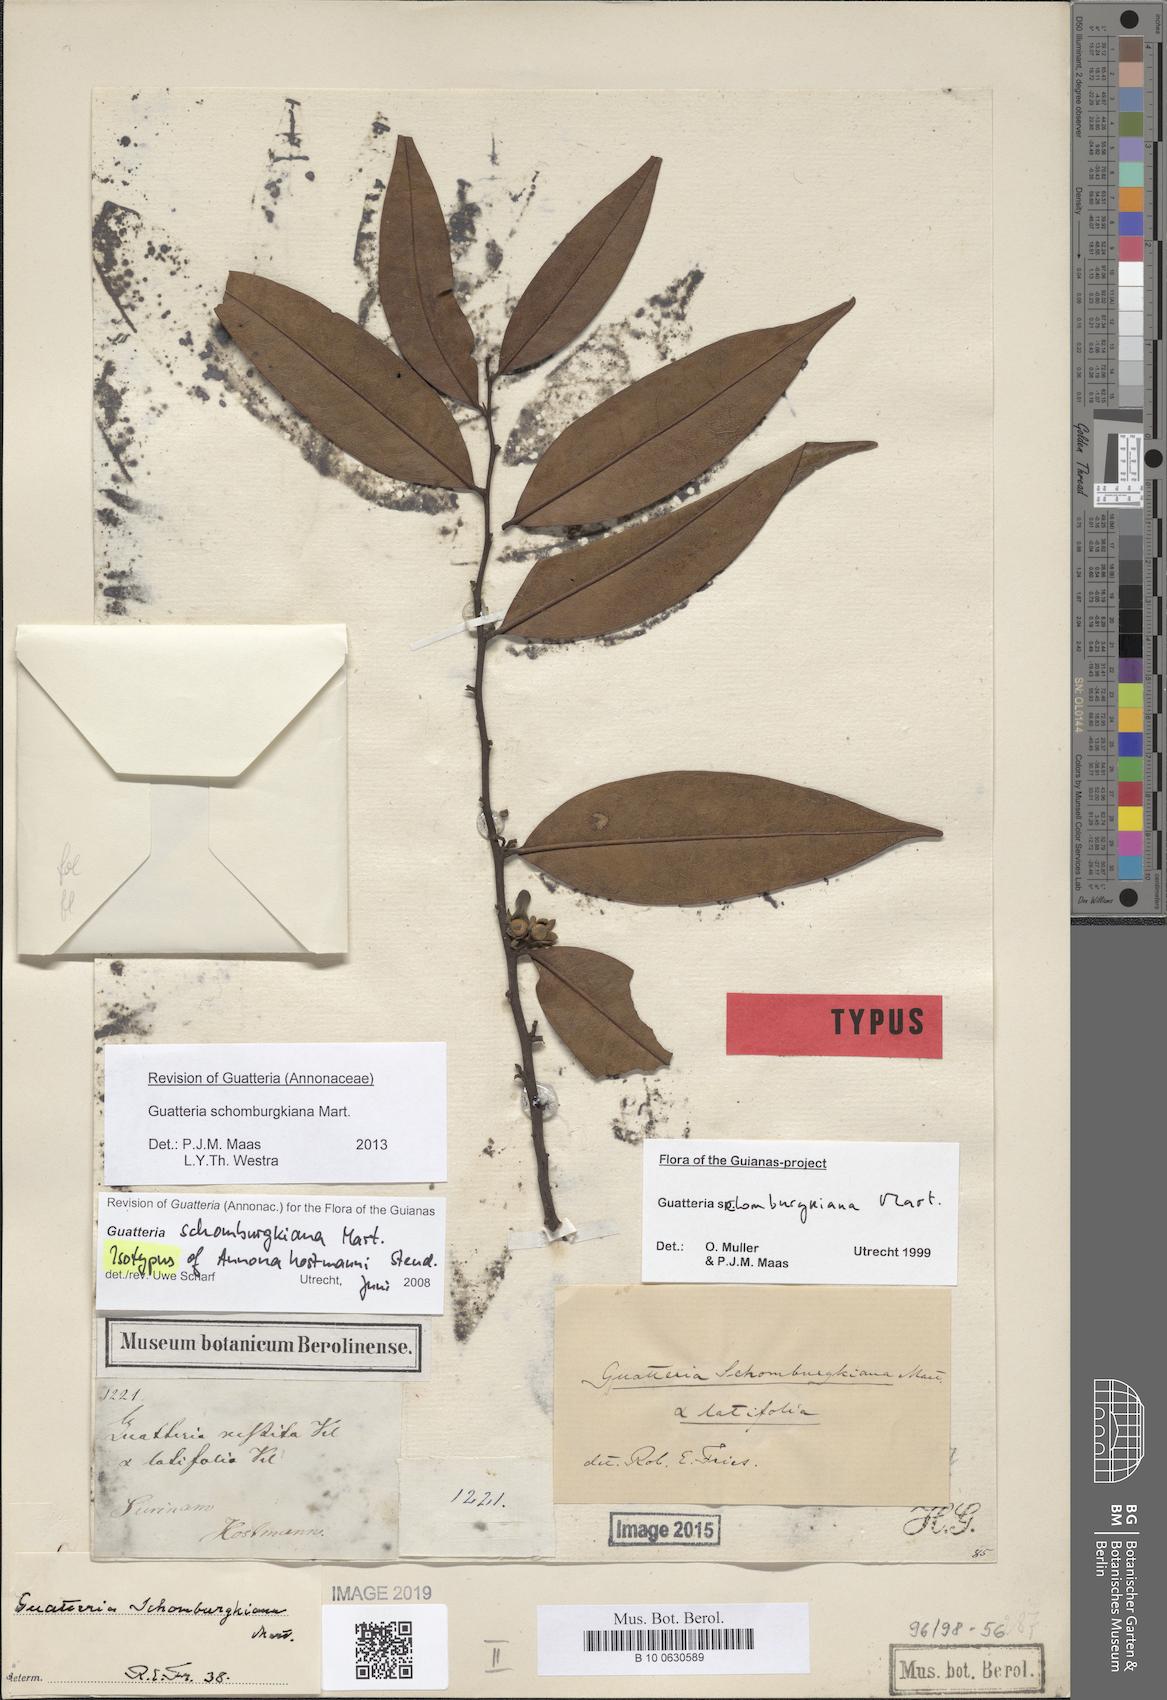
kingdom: Plantae
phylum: Tracheophyta
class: Magnoliopsida
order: Magnoliales
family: Annonaceae
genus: Guatteria
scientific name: Guatteria schomburgkiana
